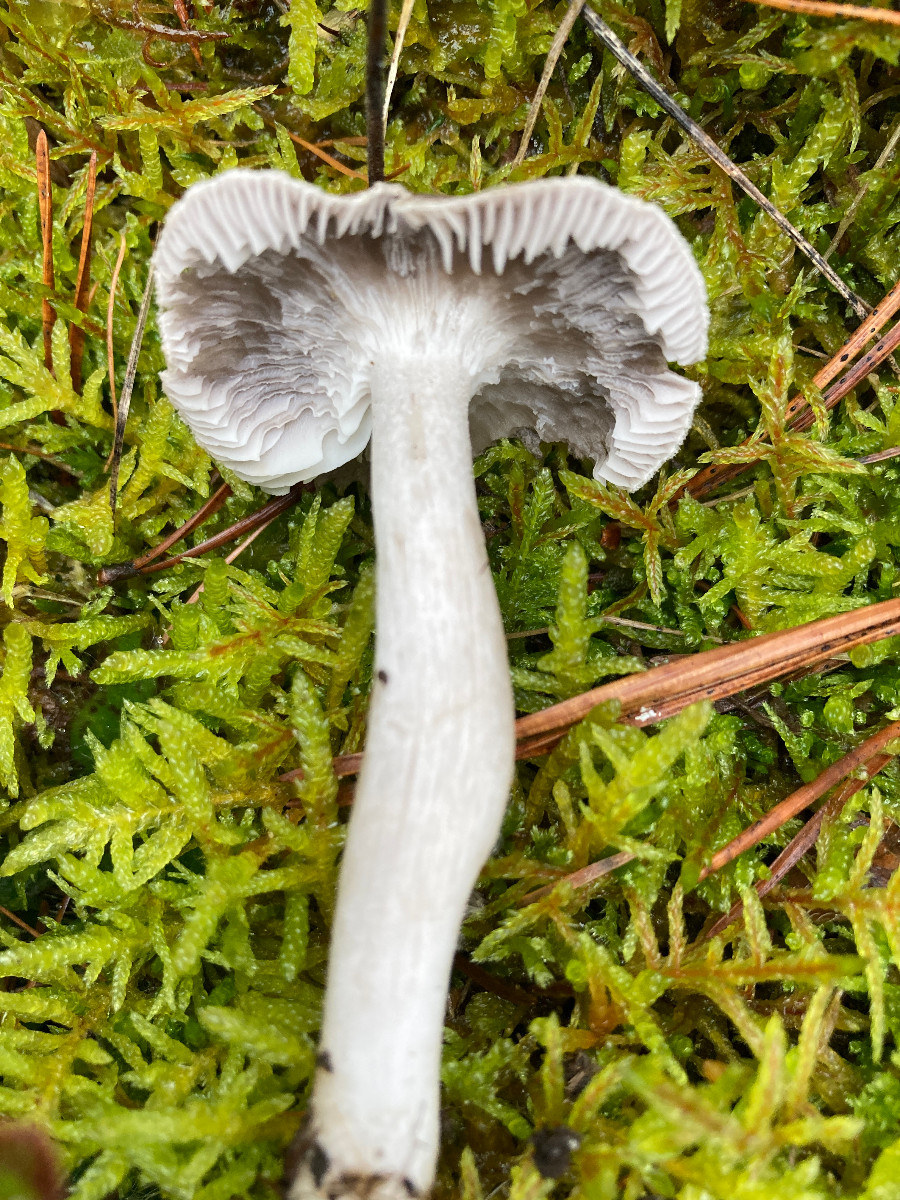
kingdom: Fungi
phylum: Basidiomycota
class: Agaricomycetes
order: Agaricales
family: Tricholomataceae
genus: Tricholoma
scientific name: Tricholoma terreum
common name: jordfarvet ridderhat
